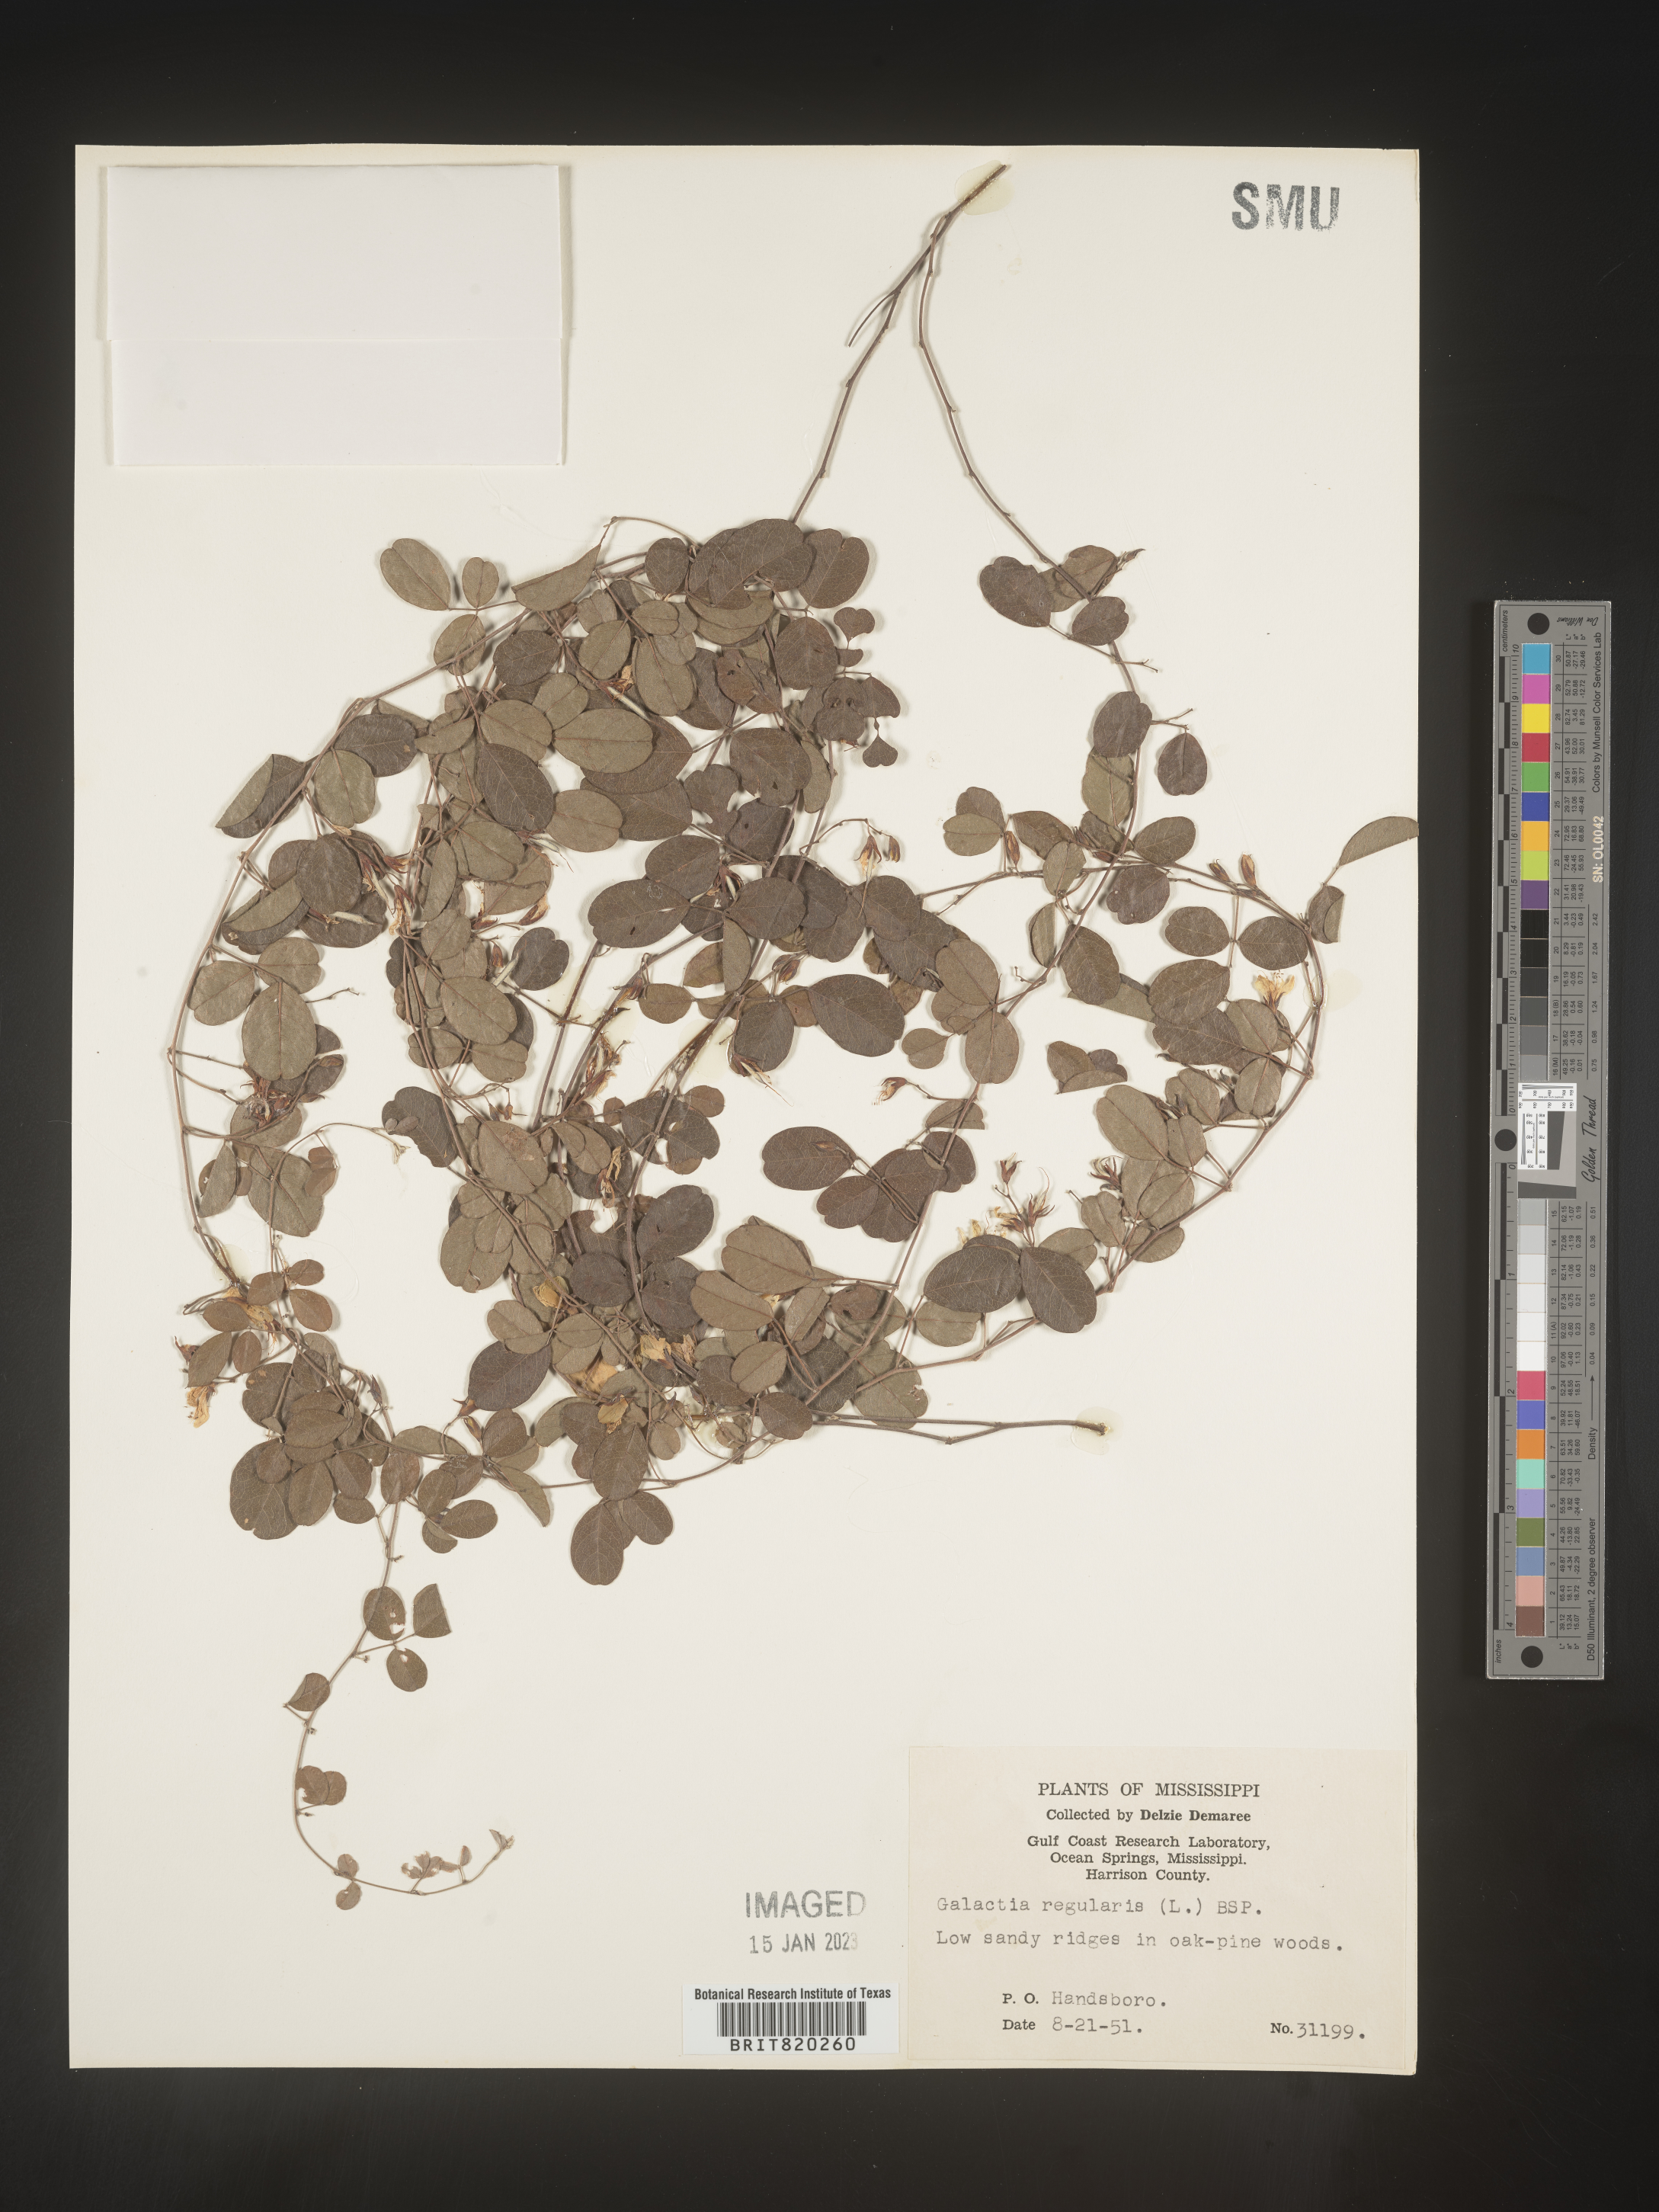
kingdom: Plantae
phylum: Tracheophyta
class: Magnoliopsida
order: Fabales
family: Fabaceae
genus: Galactia
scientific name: Galactia microphylla
